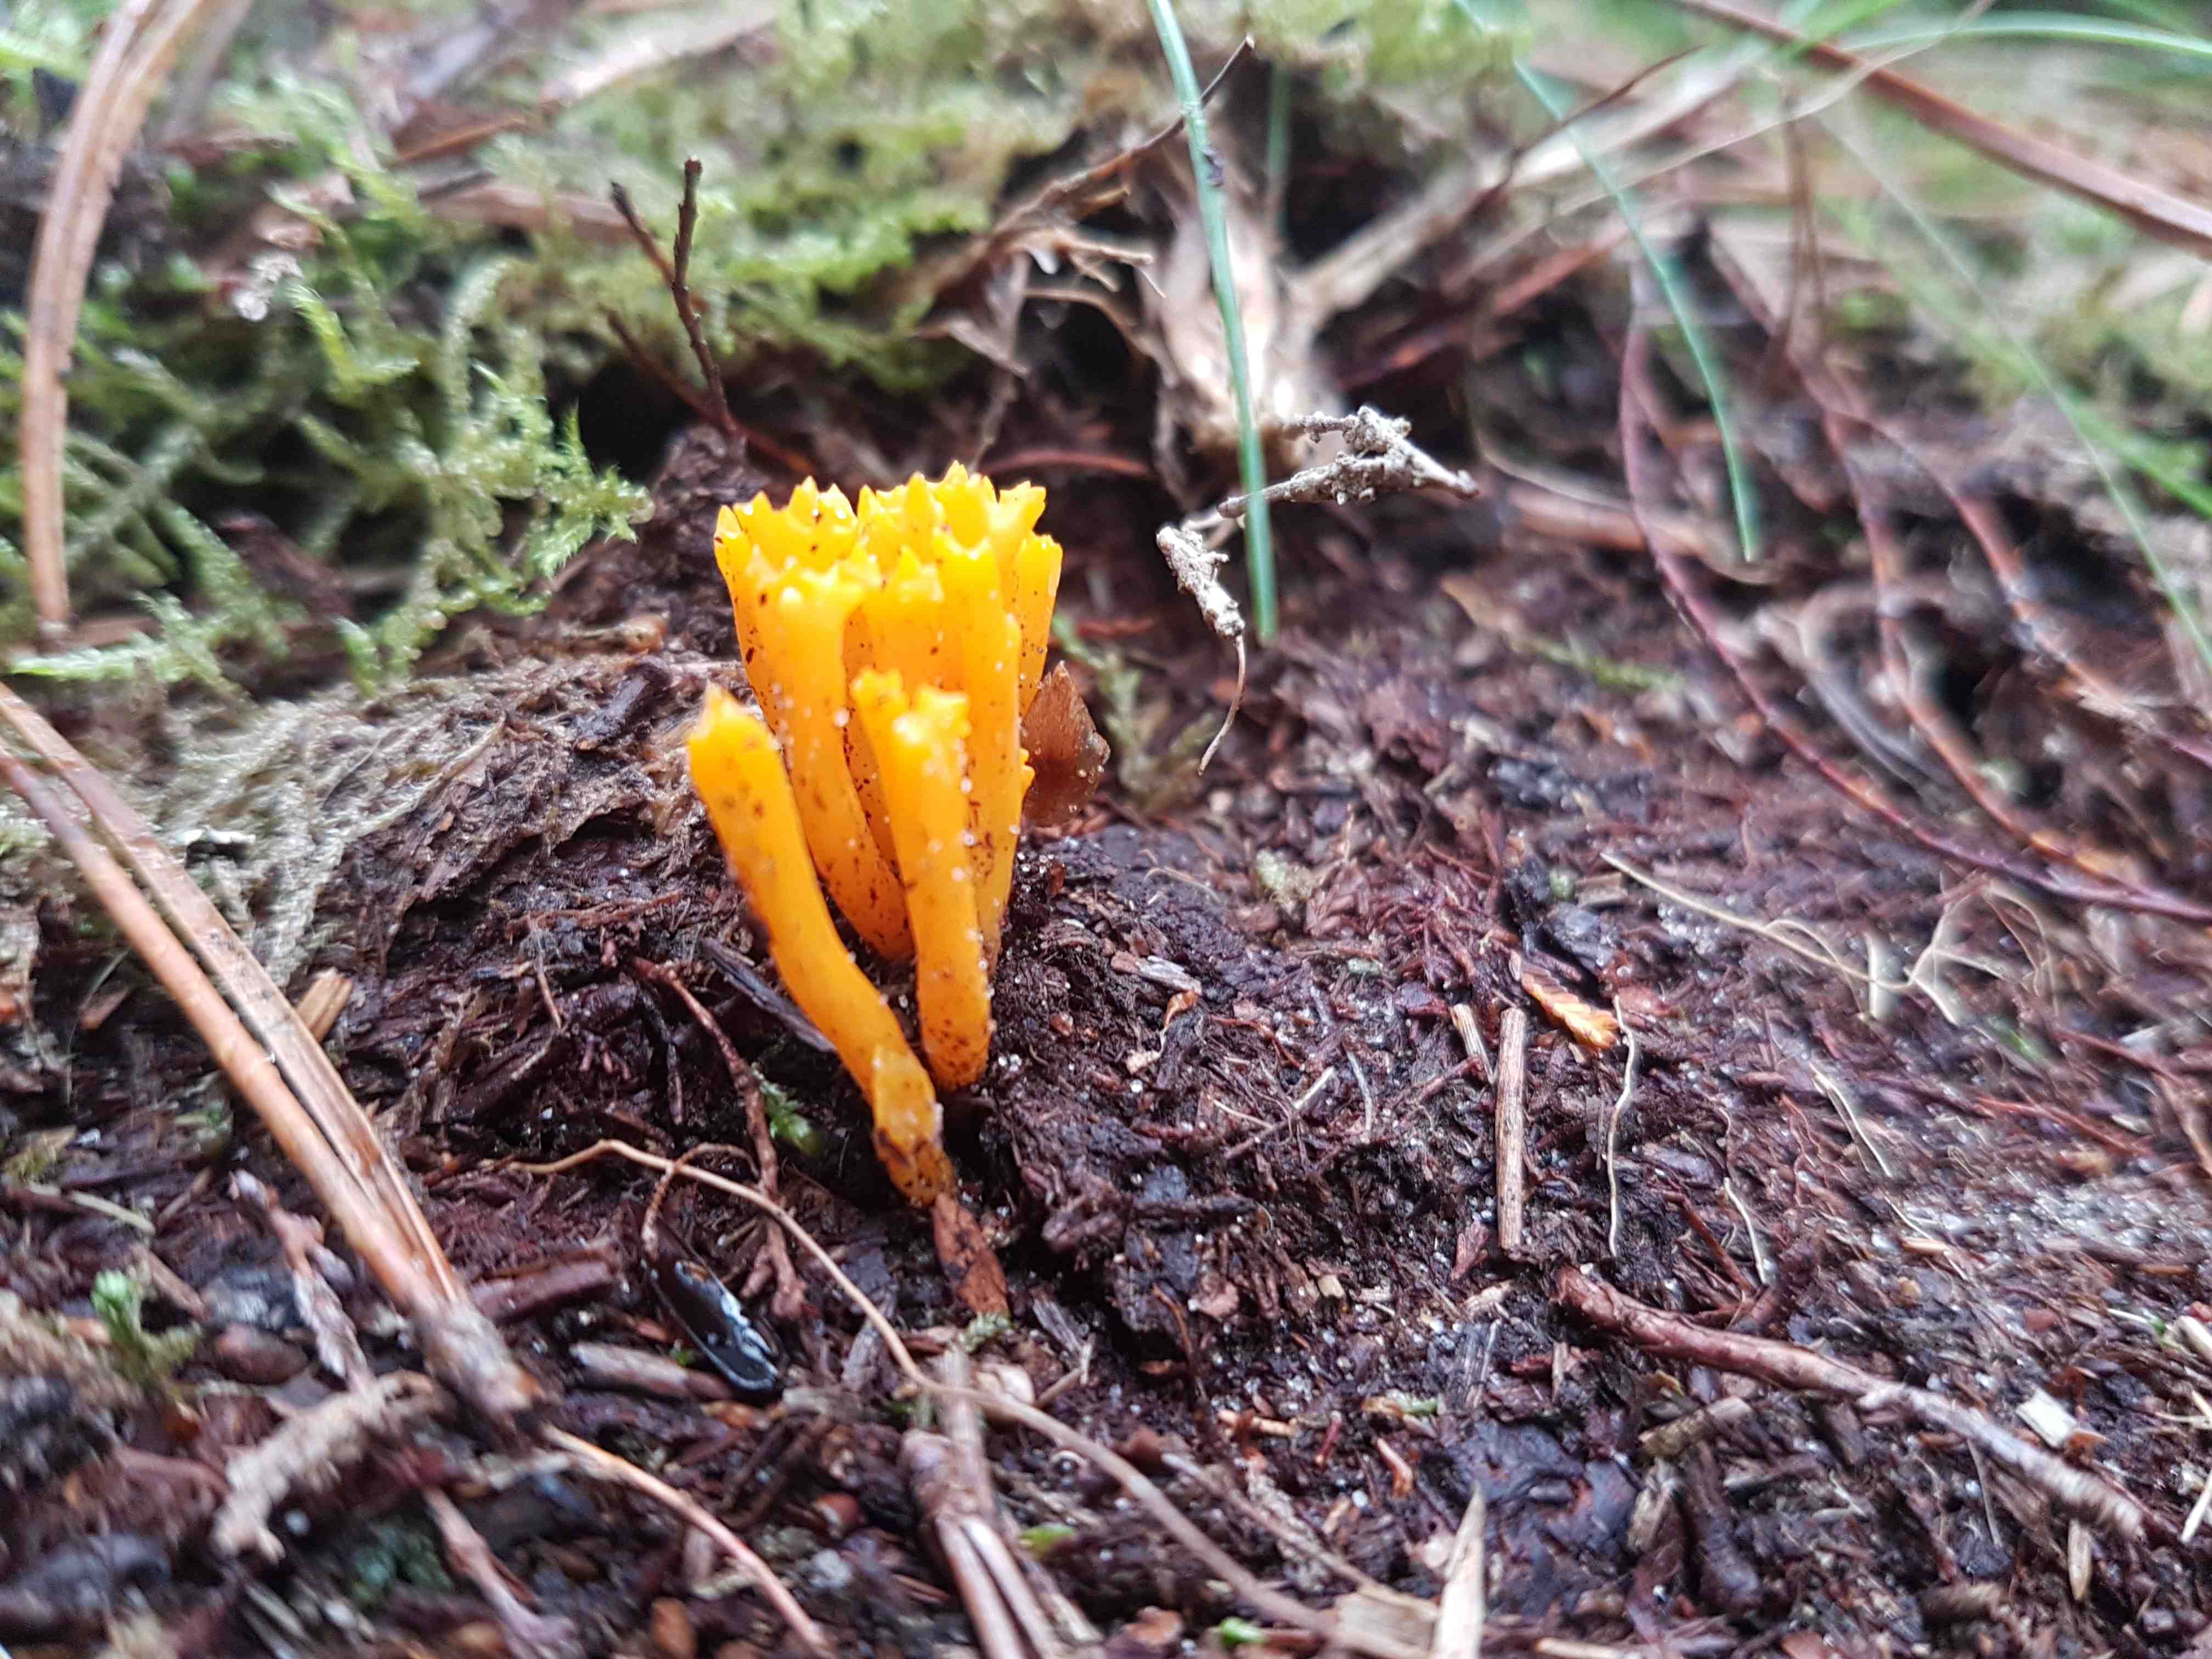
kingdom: Fungi
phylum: Basidiomycota
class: Dacrymycetes
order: Dacrymycetales
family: Dacrymycetaceae
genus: Calocera
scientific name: Calocera viscosa
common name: almindelig guldgaffel
